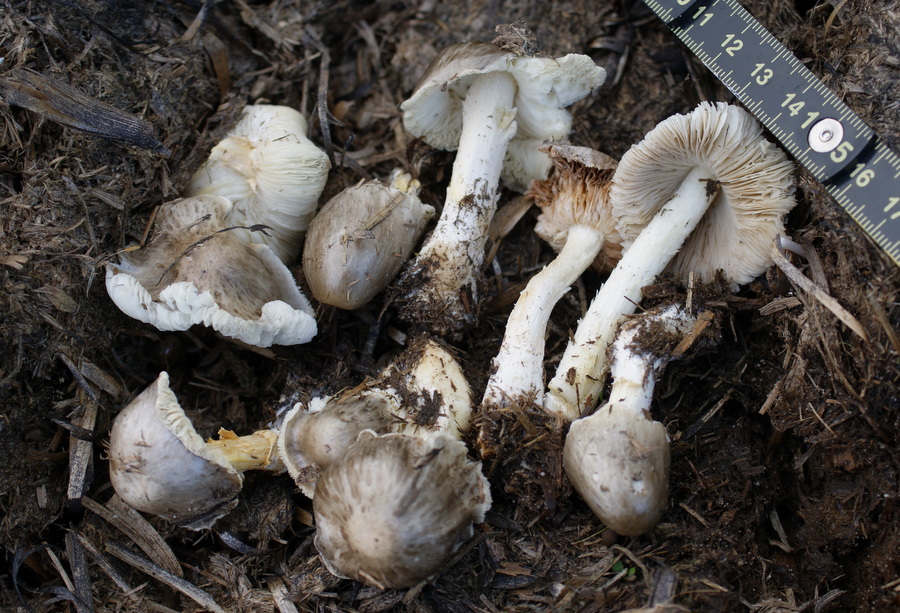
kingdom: Fungi
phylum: Basidiomycota
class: Agaricomycetes
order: Agaricales
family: Bolbitiaceae
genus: Bolbitius
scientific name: Bolbitius demangei
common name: blygrå gulhat
